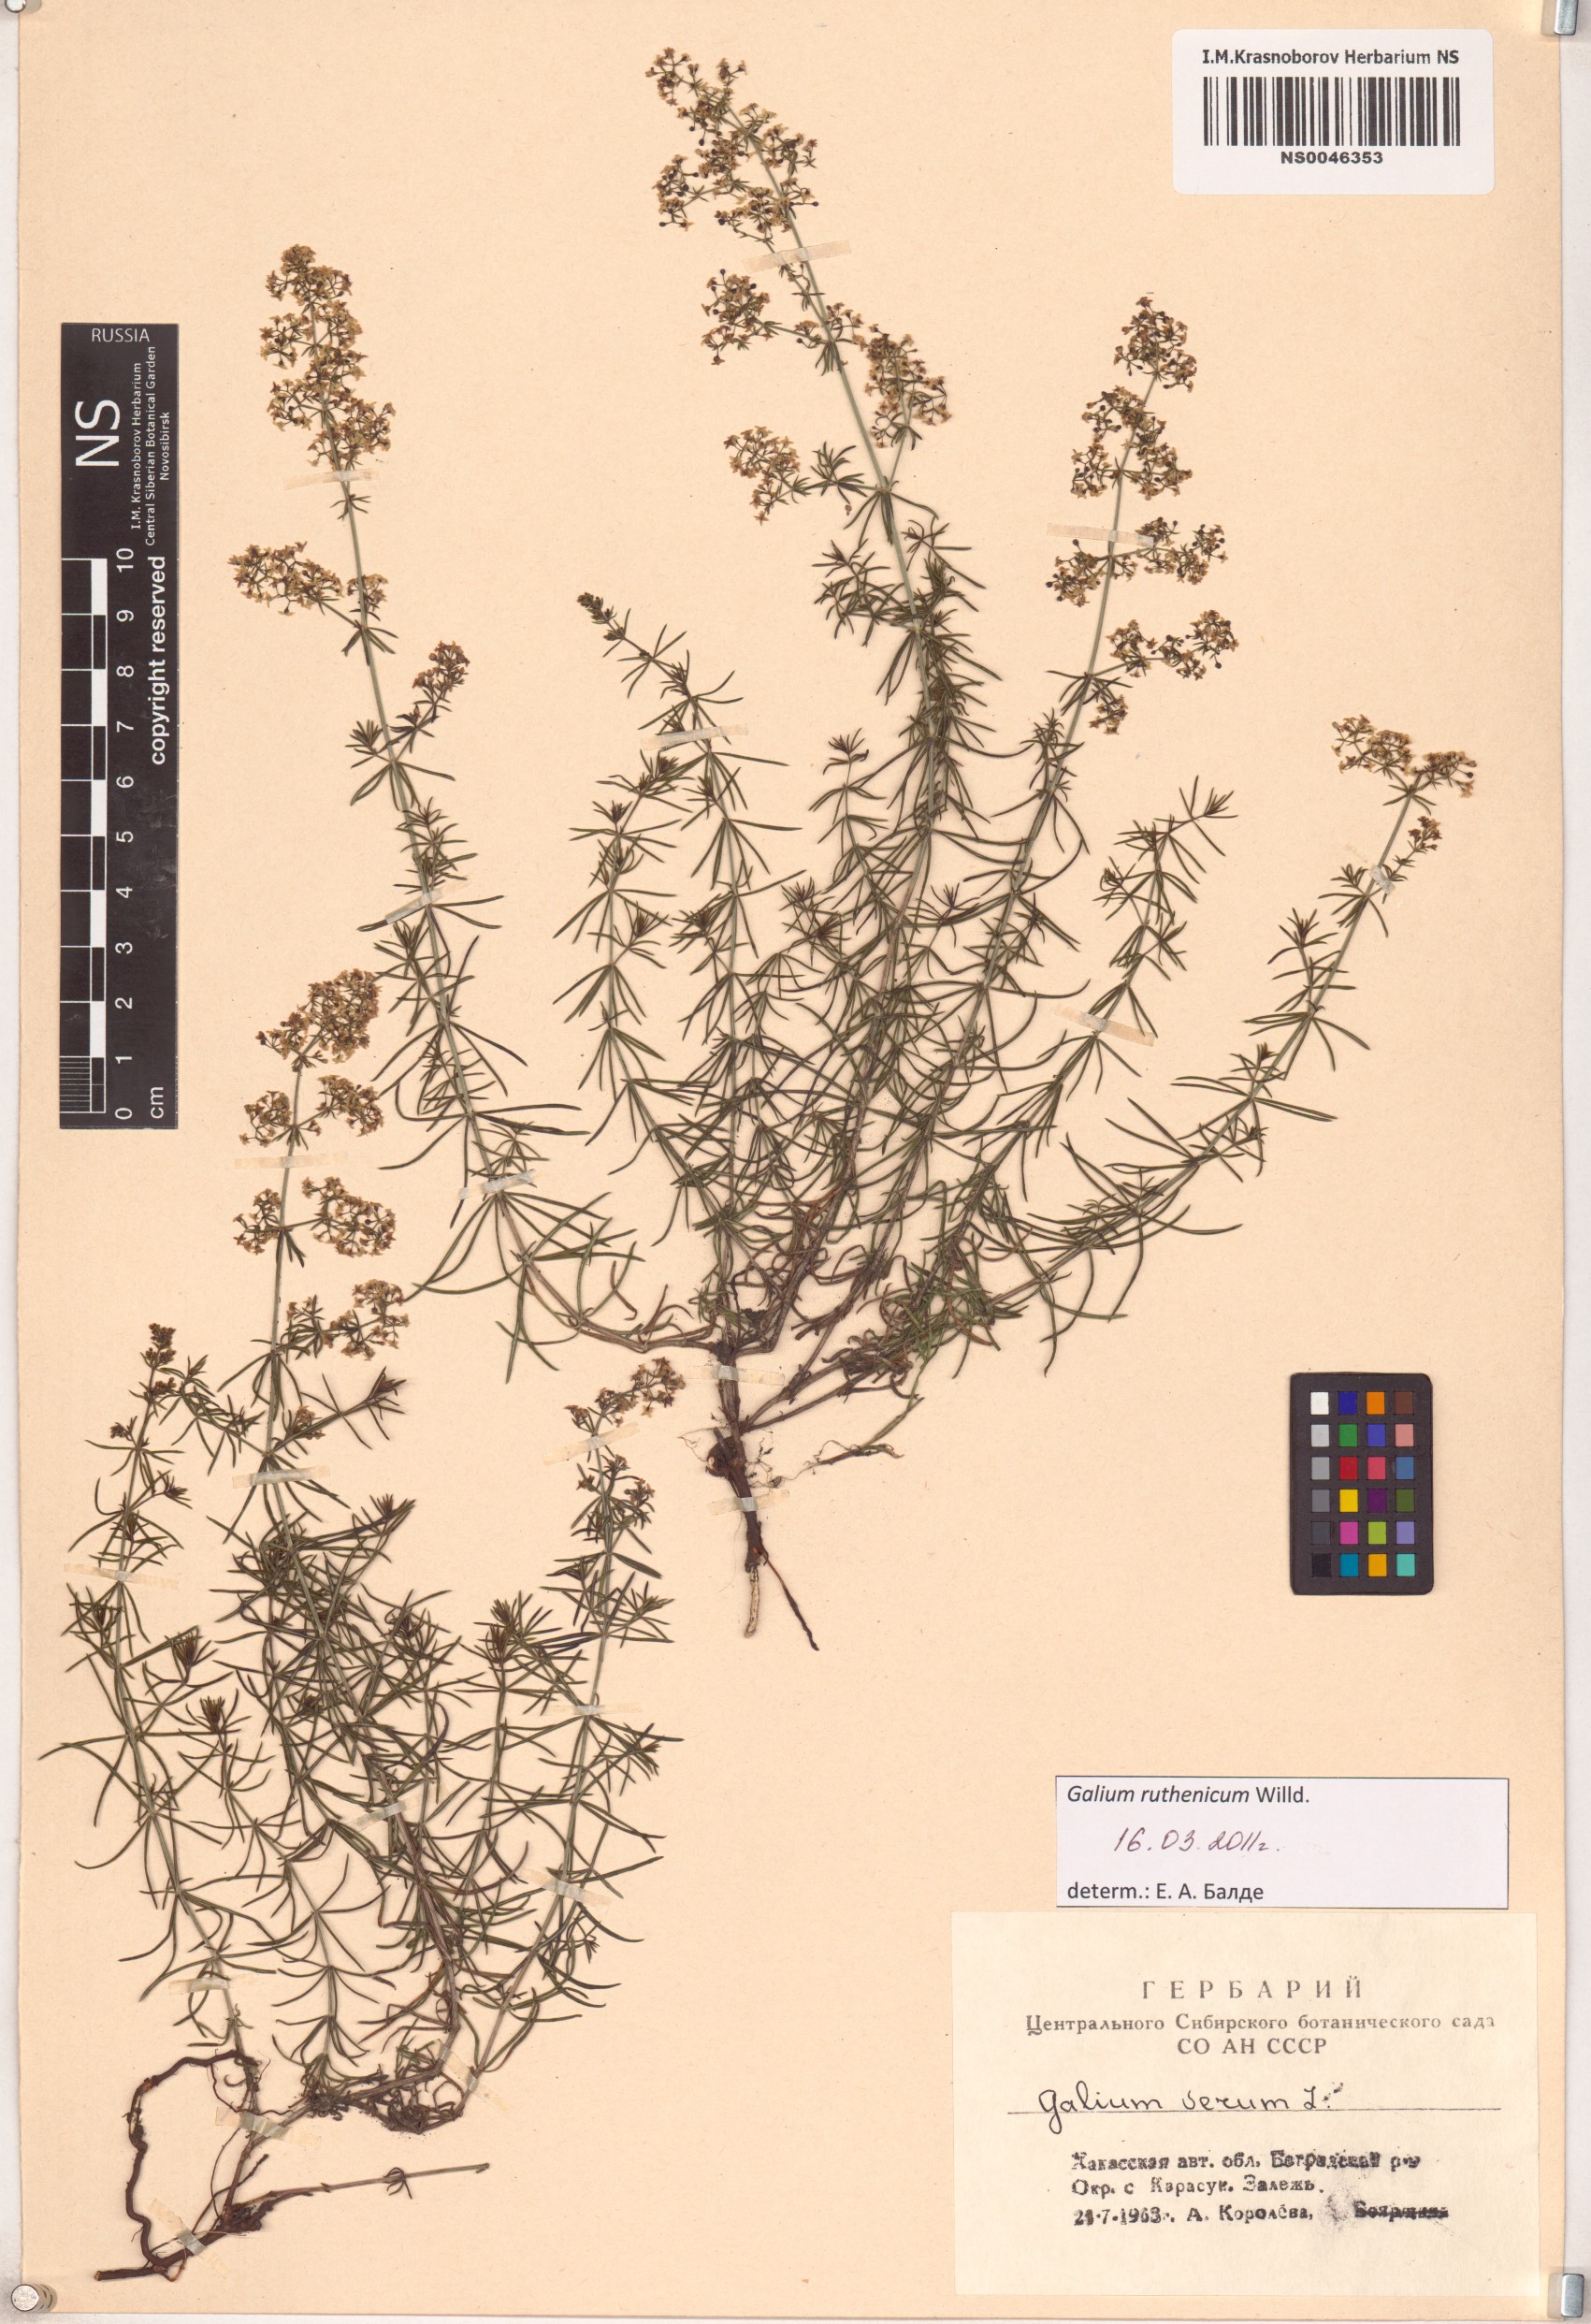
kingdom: Plantae
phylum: Tracheophyta
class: Magnoliopsida
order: Gentianales
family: Rubiaceae
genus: Galium
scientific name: Galium verum
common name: Lady's bedstraw
